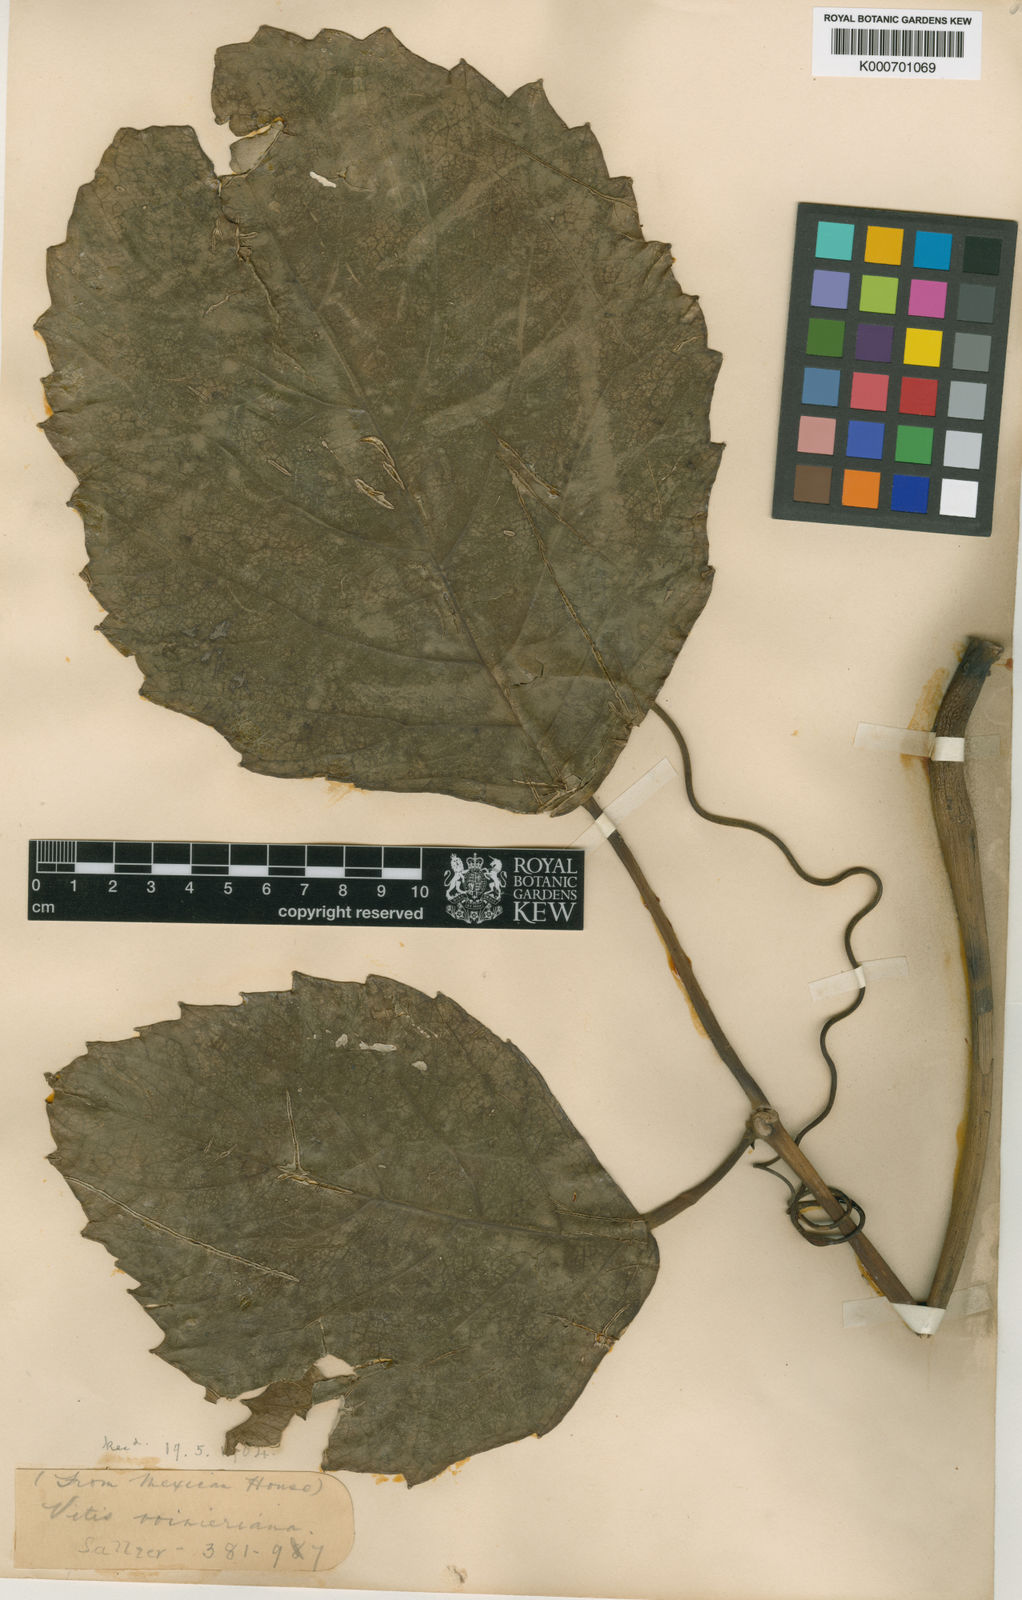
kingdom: Plantae
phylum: Tracheophyta
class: Magnoliopsida
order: Vitales
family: Vitaceae
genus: Tetrastigma
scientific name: Tetrastigma voinierianum
